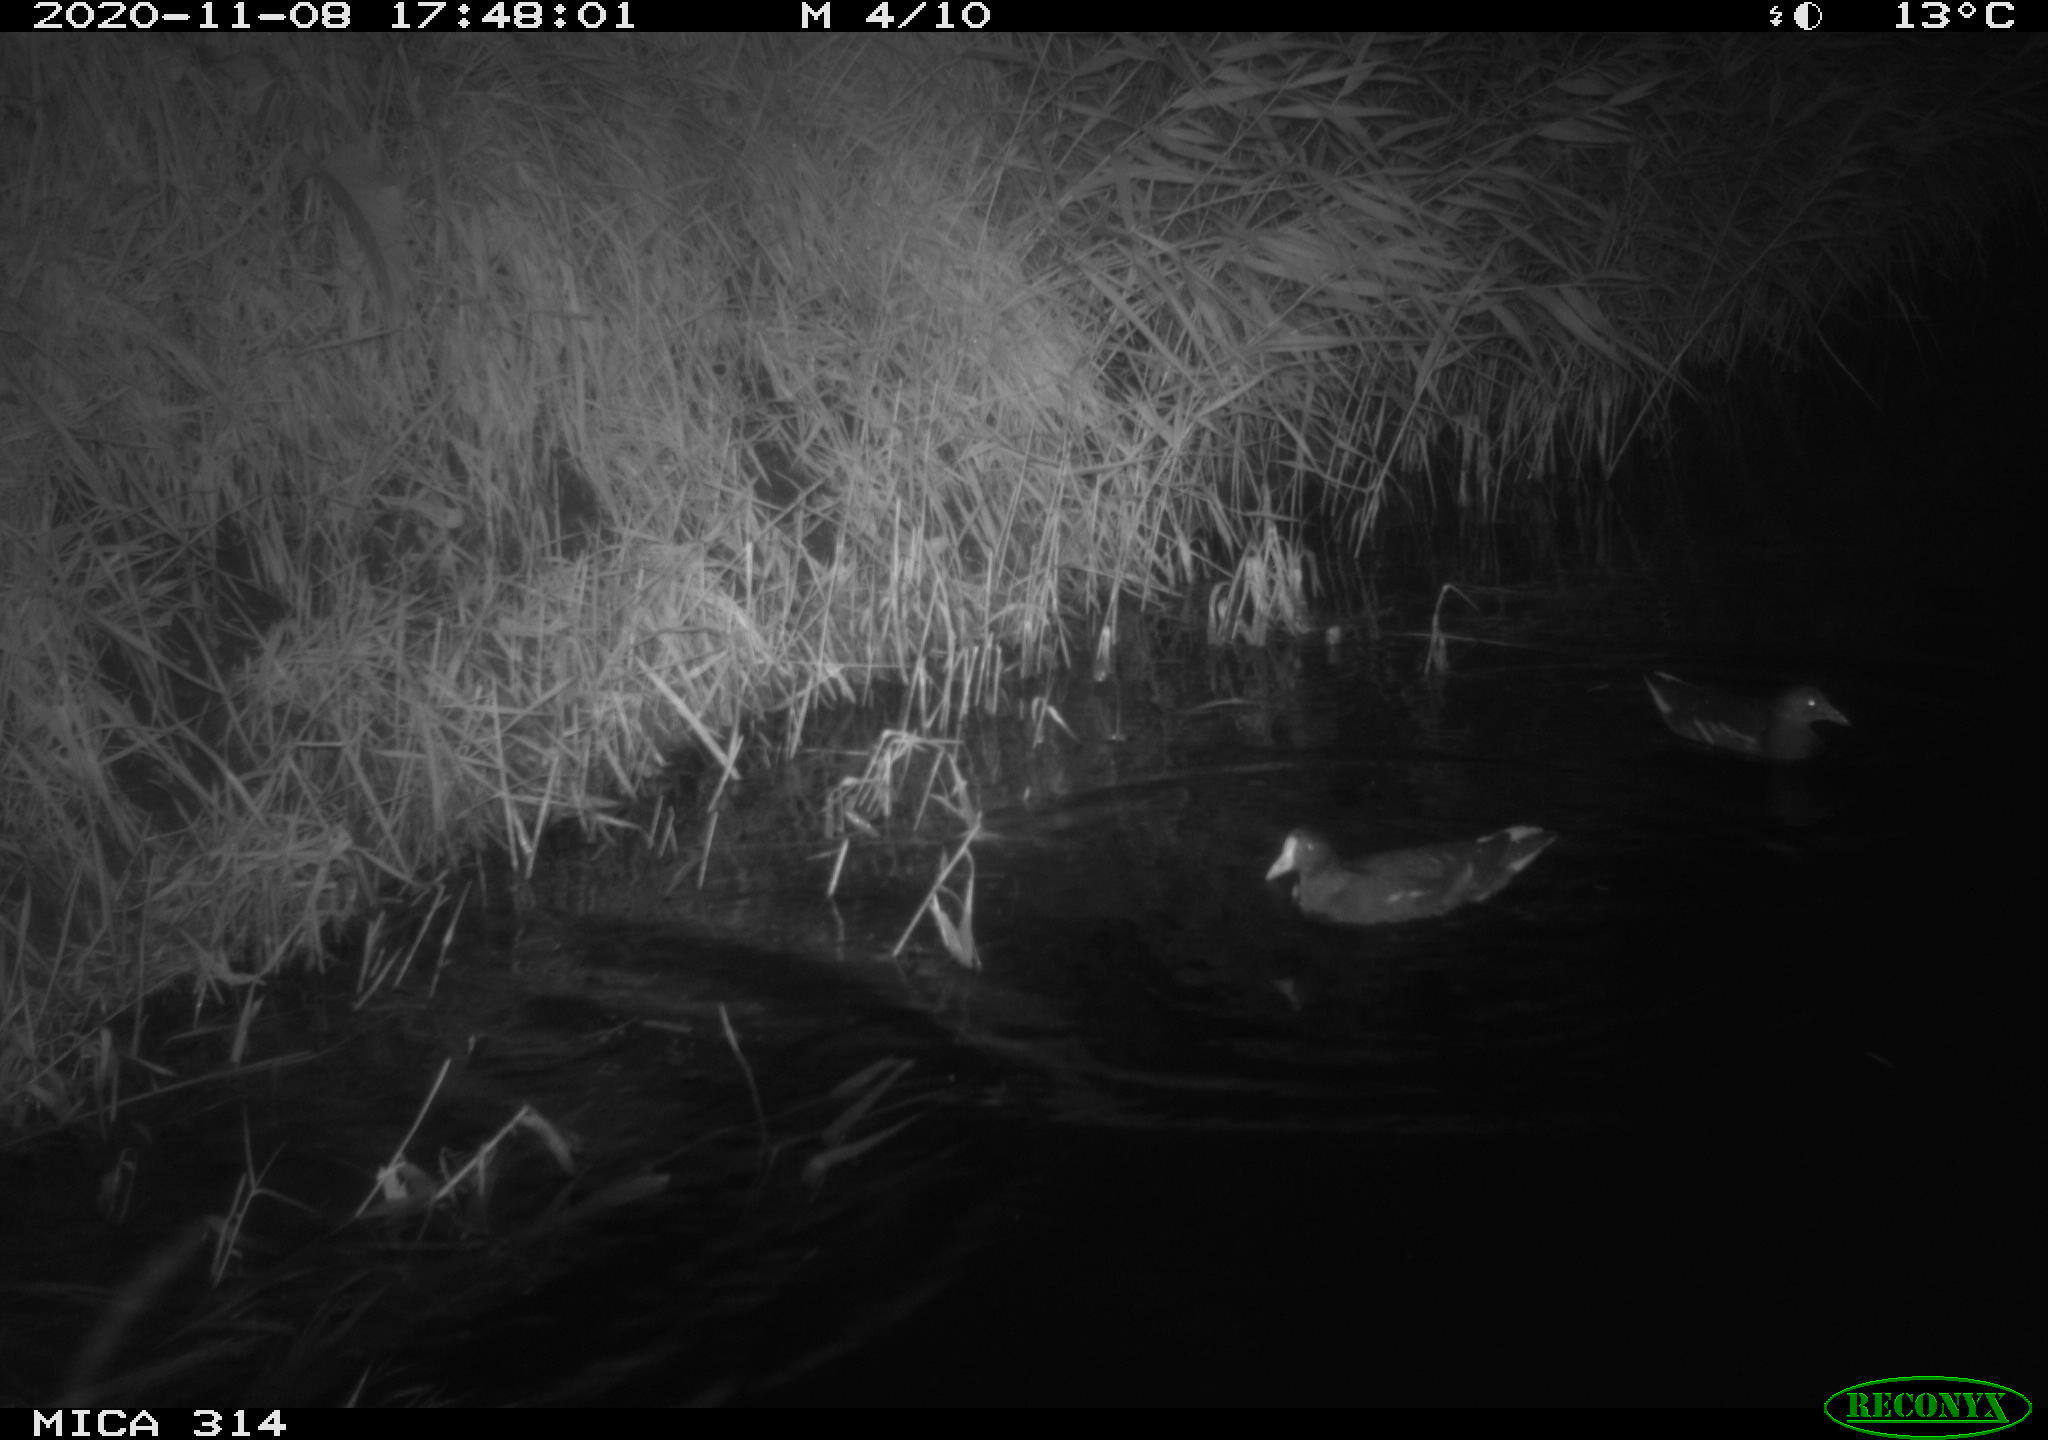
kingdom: Animalia
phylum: Chordata
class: Aves
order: Gruiformes
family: Rallidae
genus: Gallinula
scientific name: Gallinula chloropus
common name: Common moorhen
